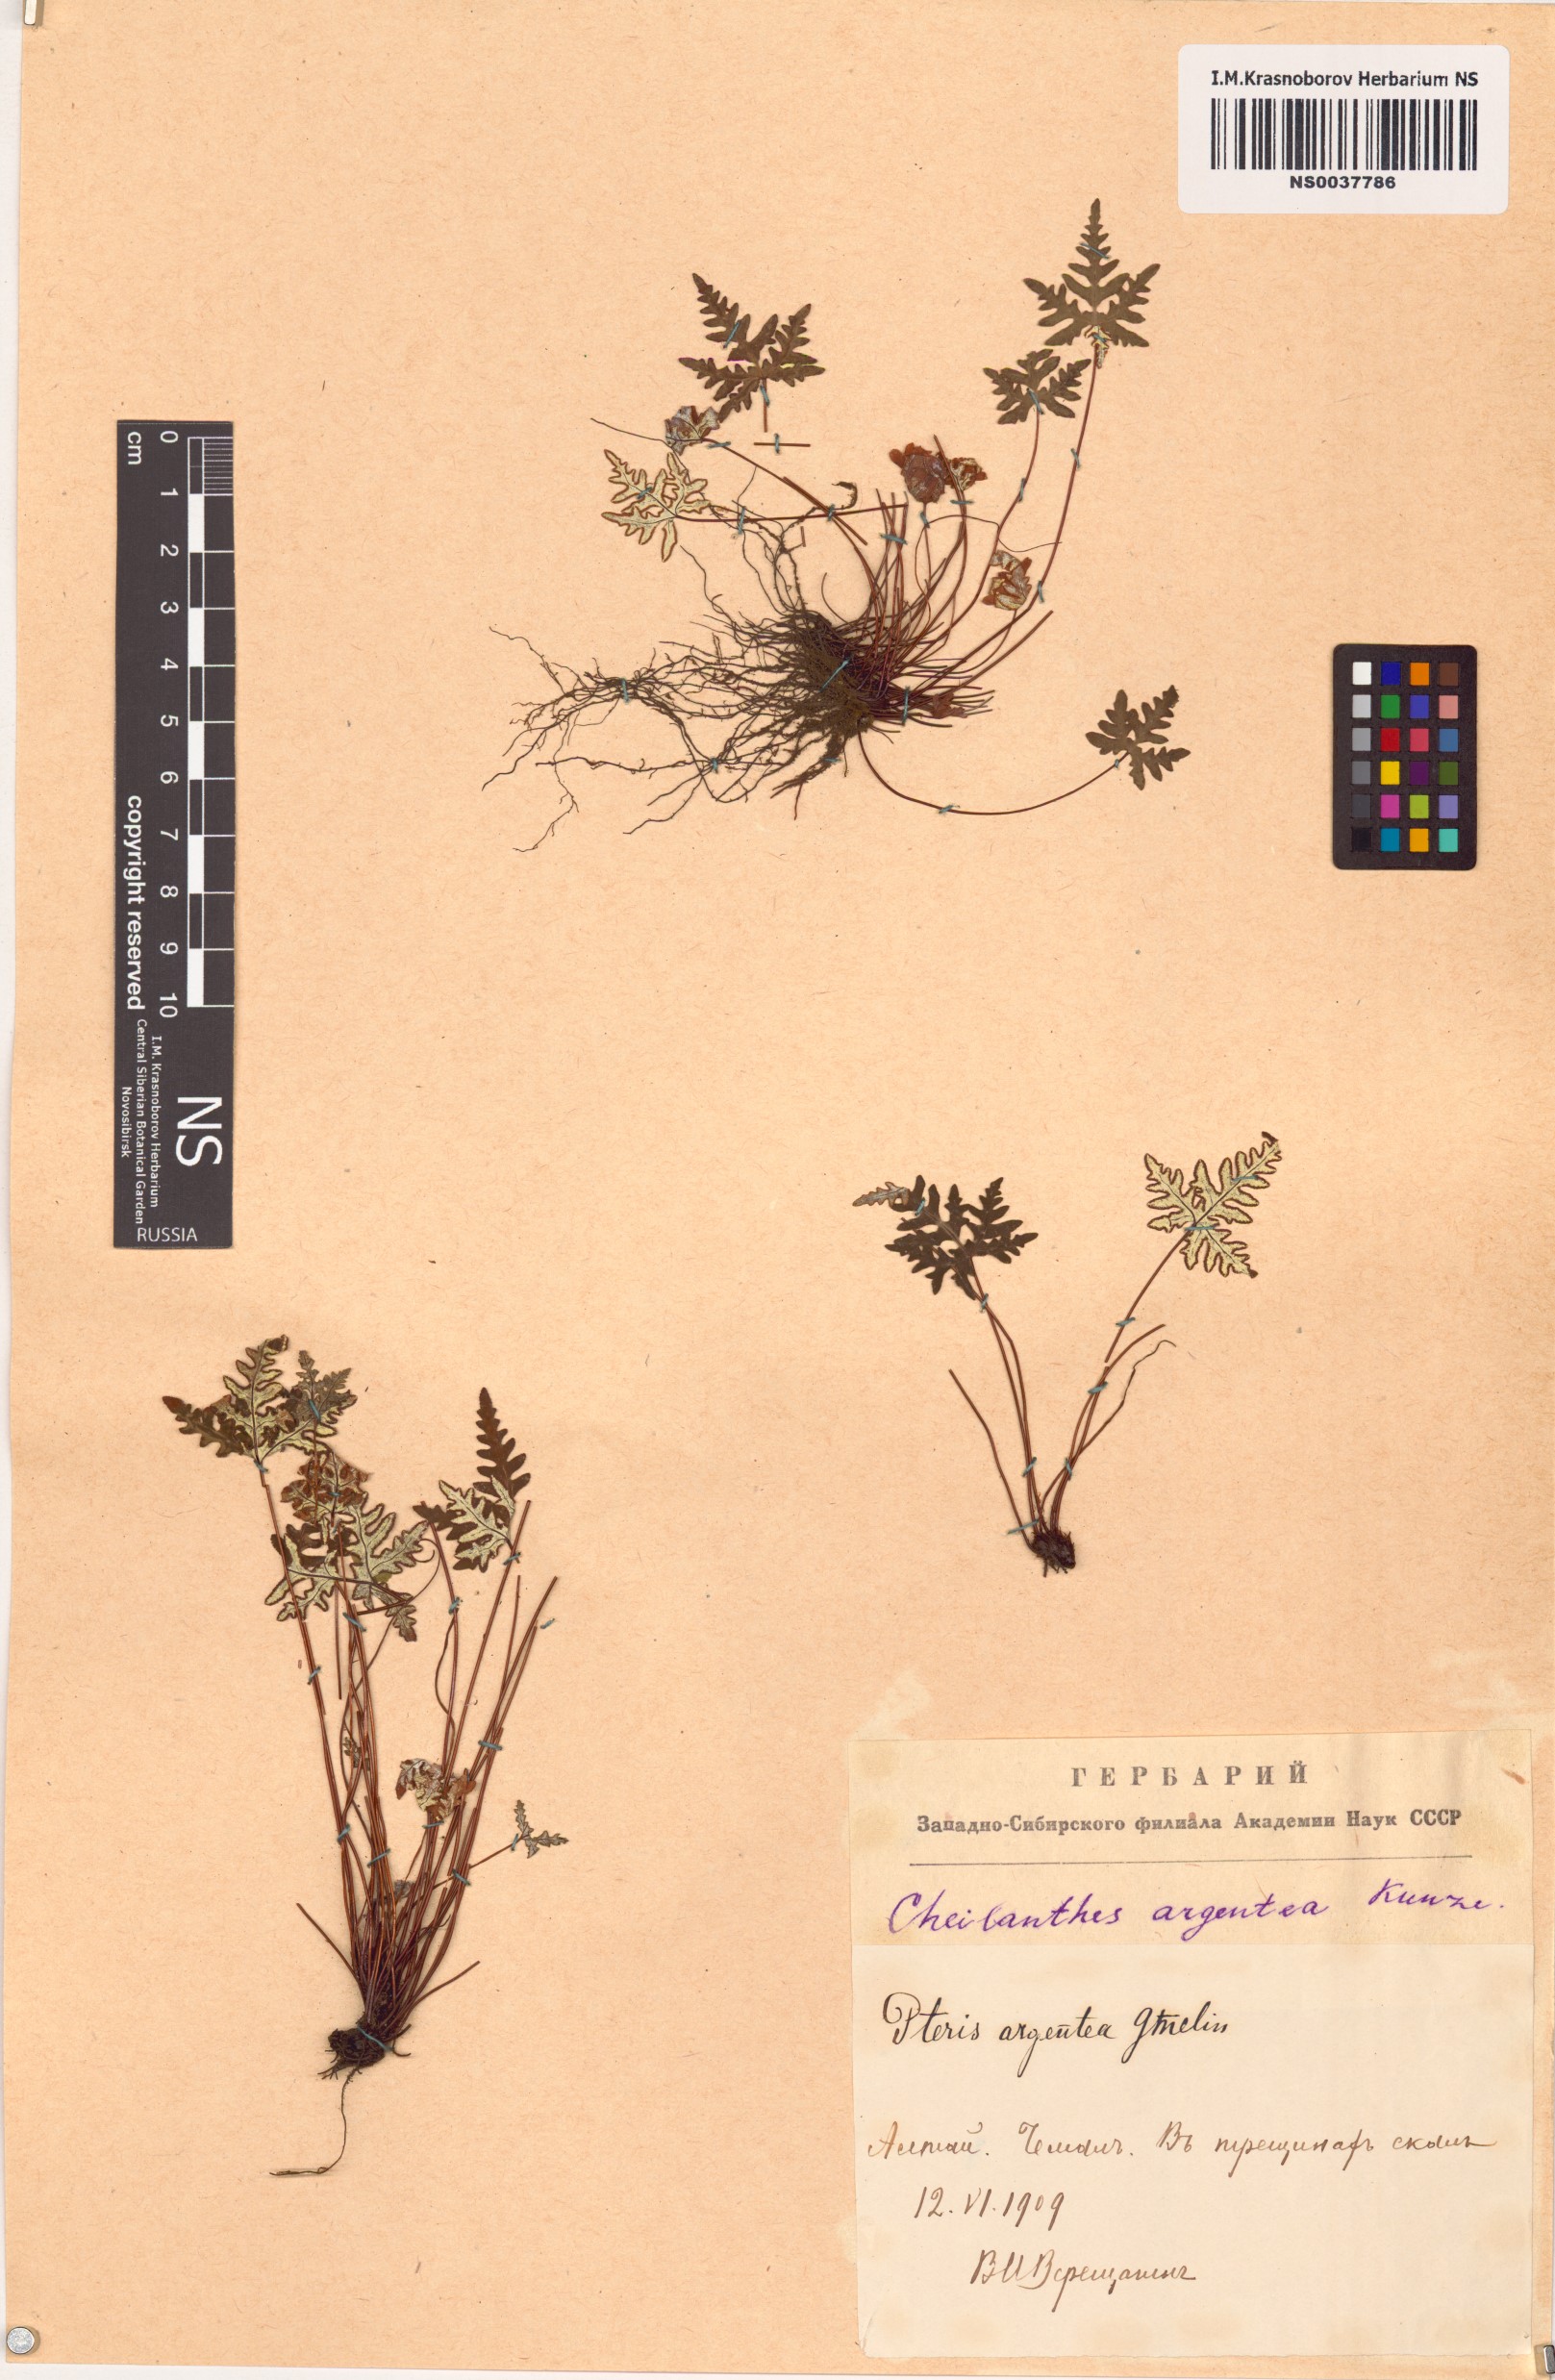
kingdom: Plantae
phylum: Tracheophyta
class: Polypodiopsida
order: Polypodiales
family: Pteridaceae
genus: Aleuritopteris
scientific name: Aleuritopteris argentea
